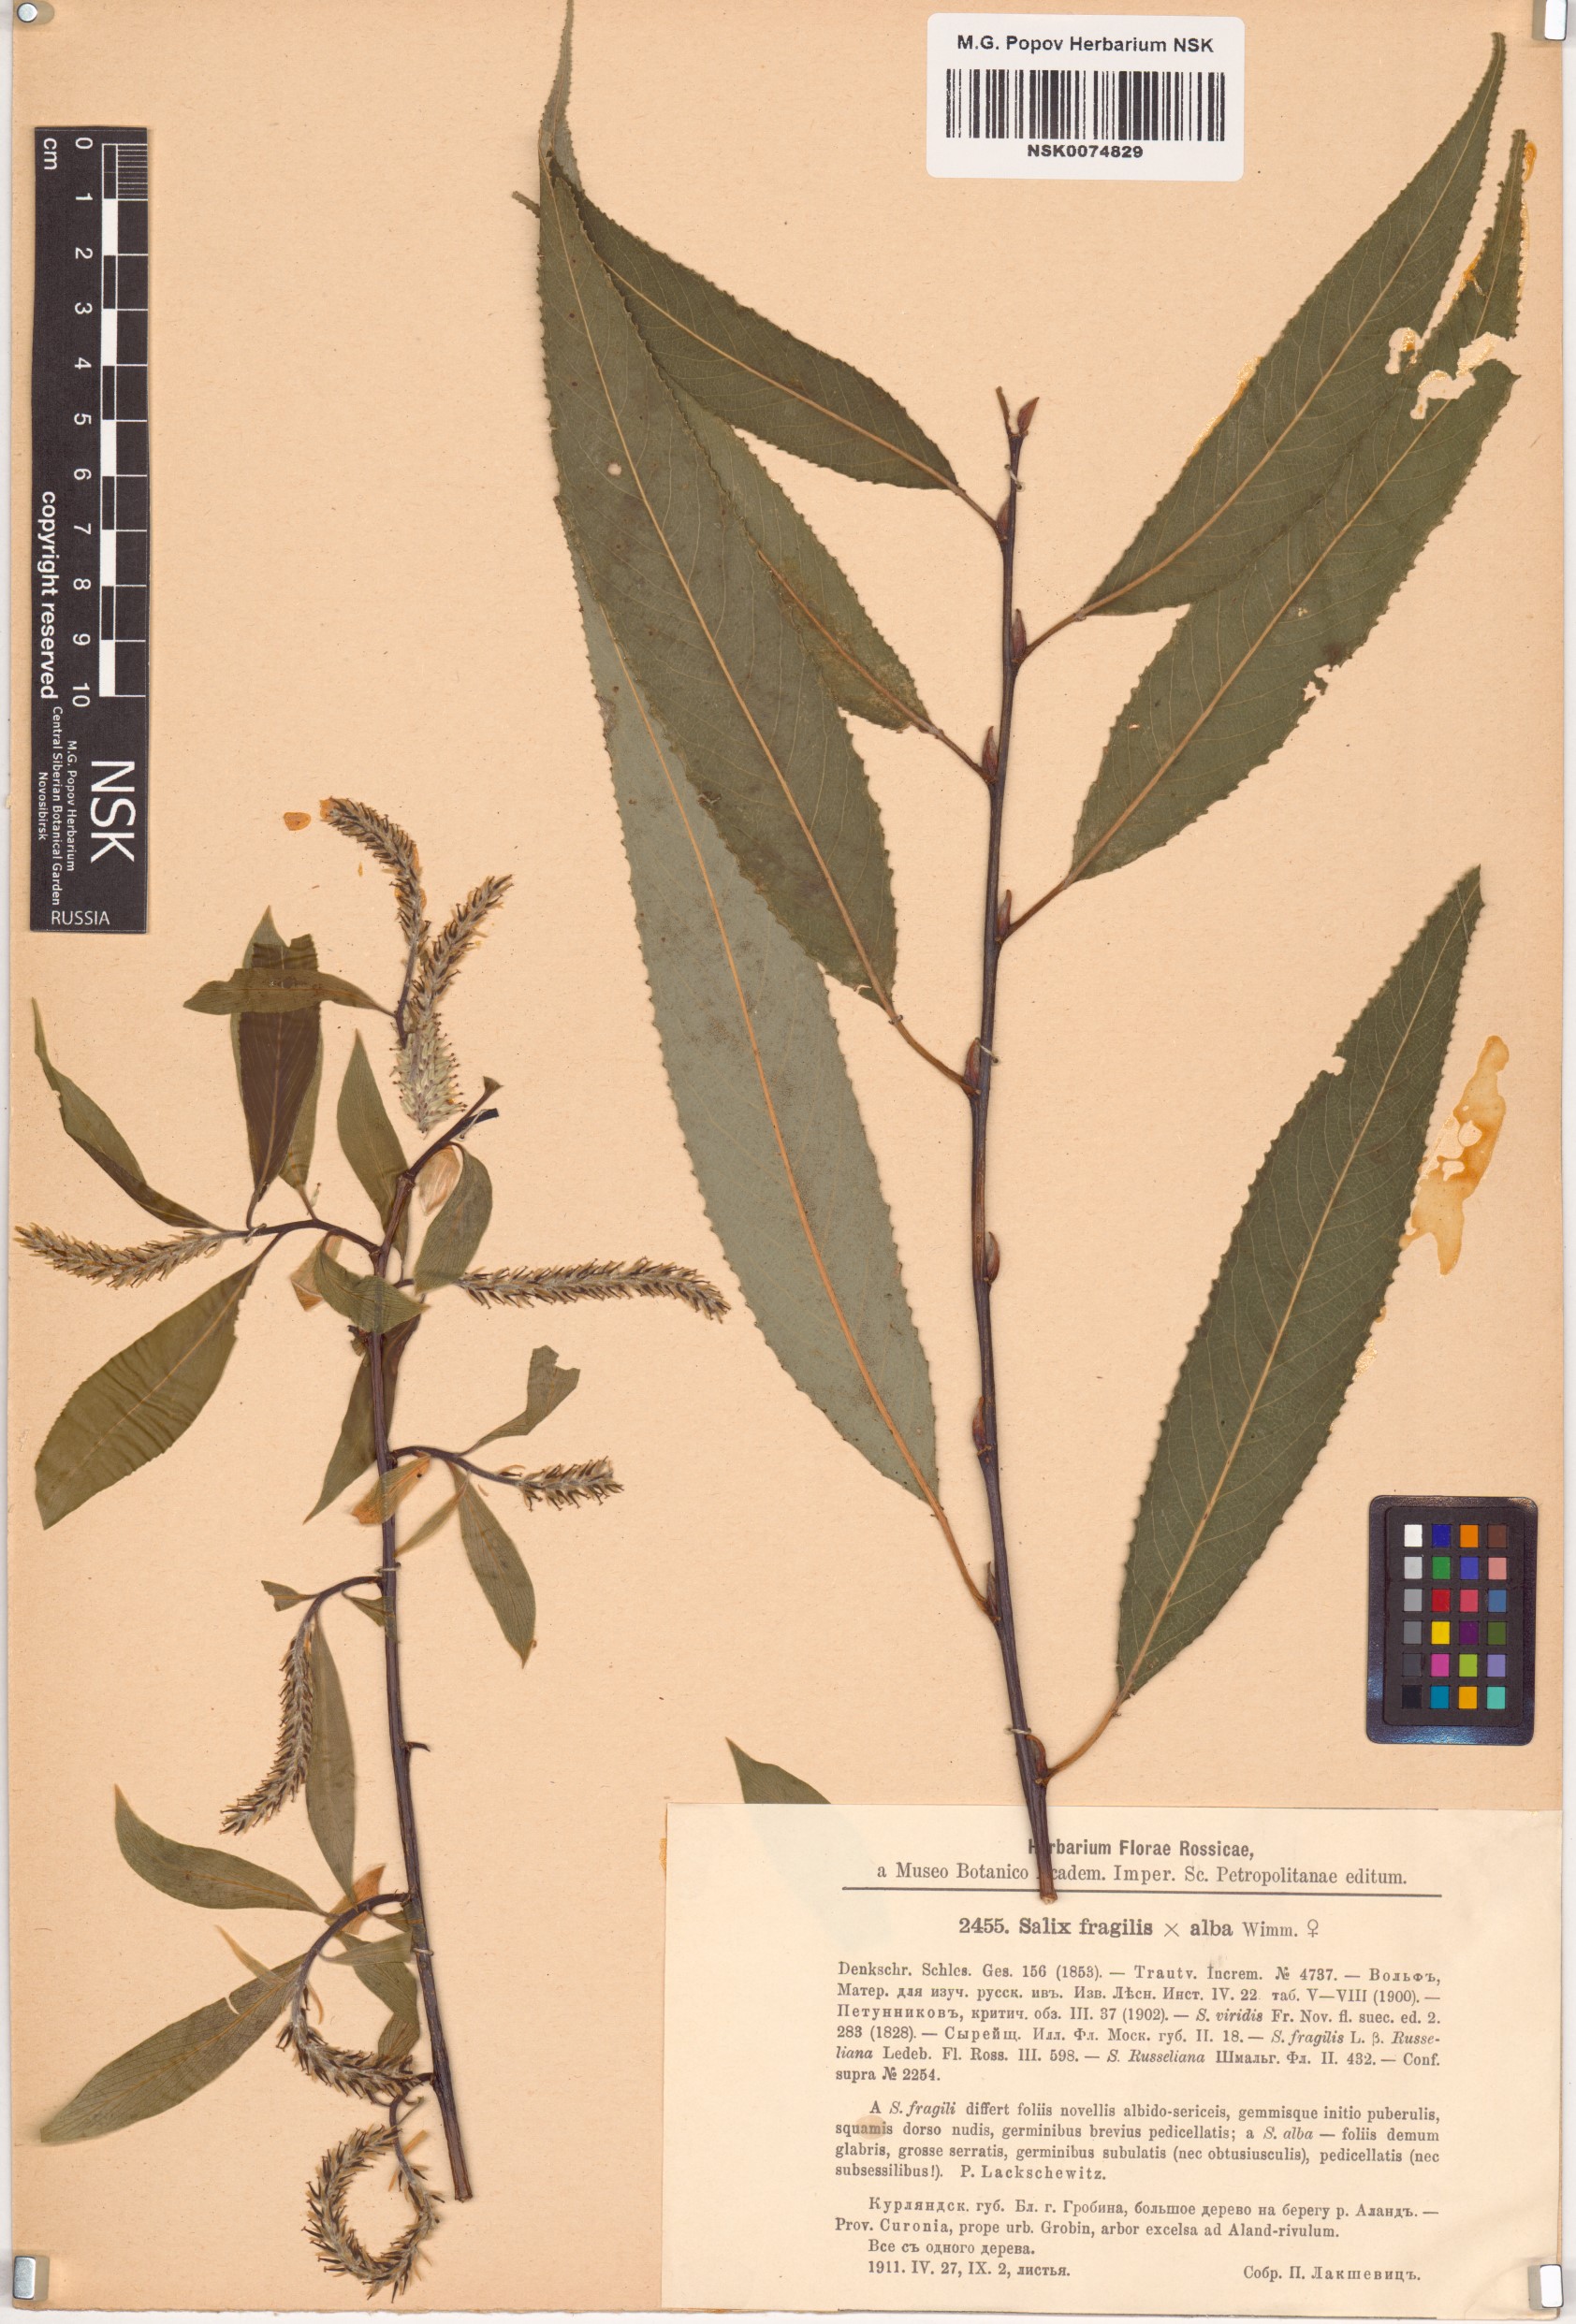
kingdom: Plantae
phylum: Tracheophyta
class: Magnoliopsida
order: Malpighiales
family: Salicaceae
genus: Salix
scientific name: Salix
